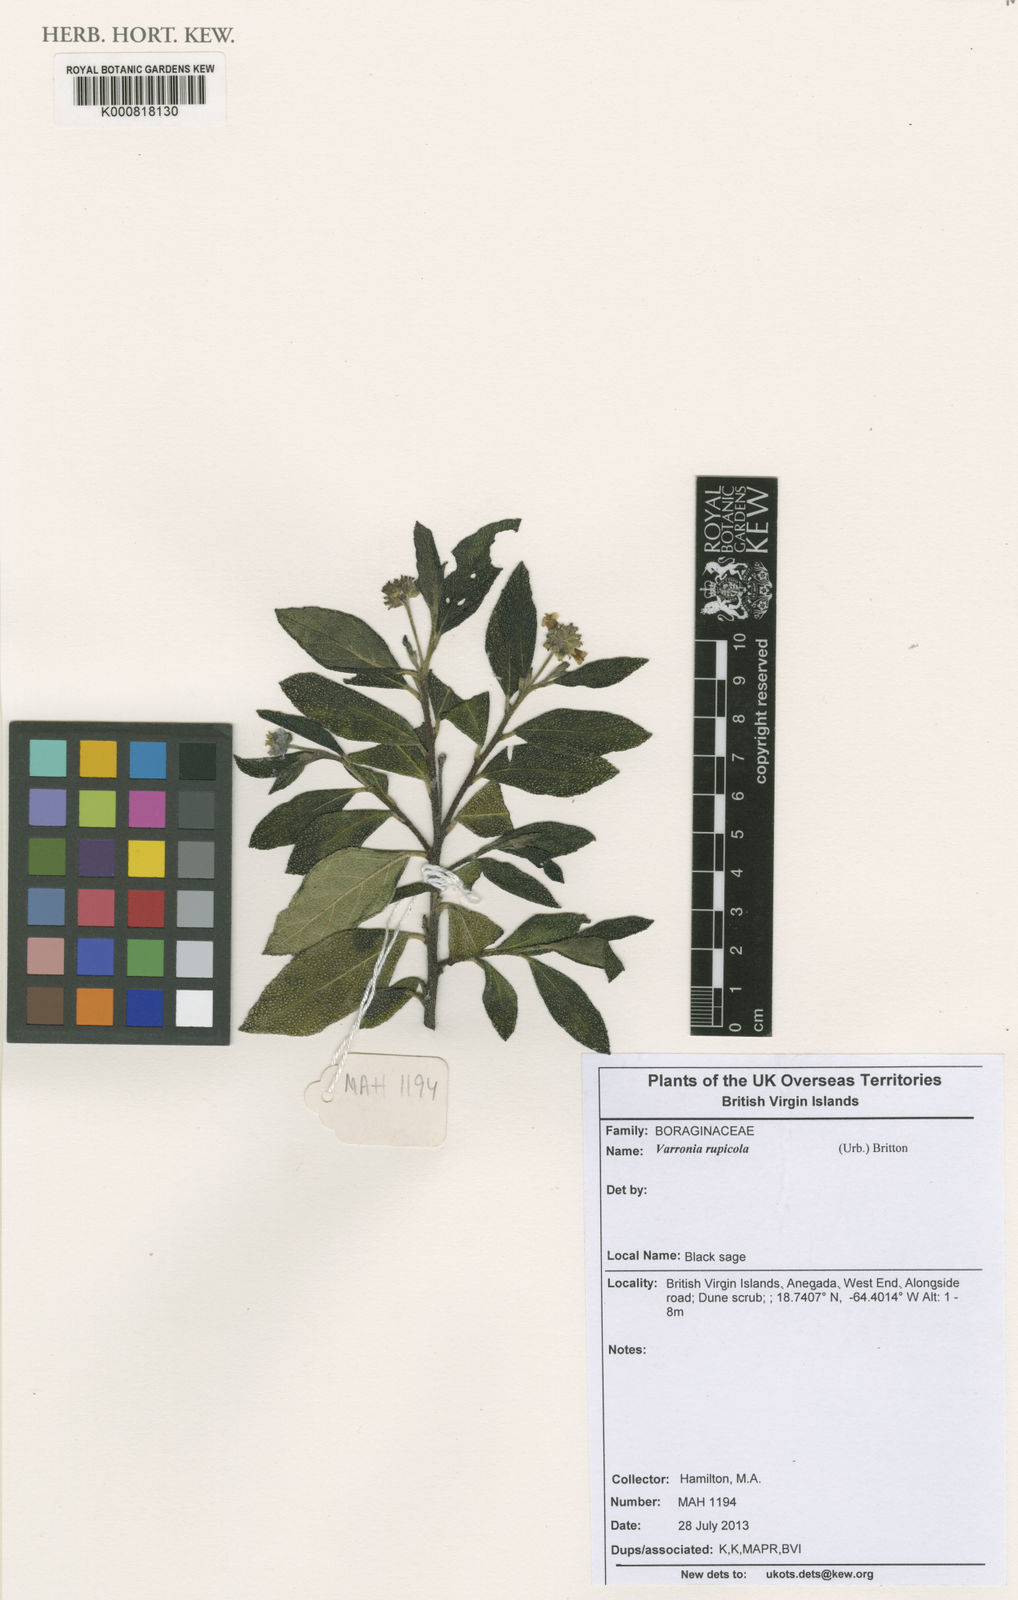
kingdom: Plantae
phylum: Tracheophyta
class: Magnoliopsida
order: Boraginales
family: Cordiaceae
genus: Varronia
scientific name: Varronia rupicola
